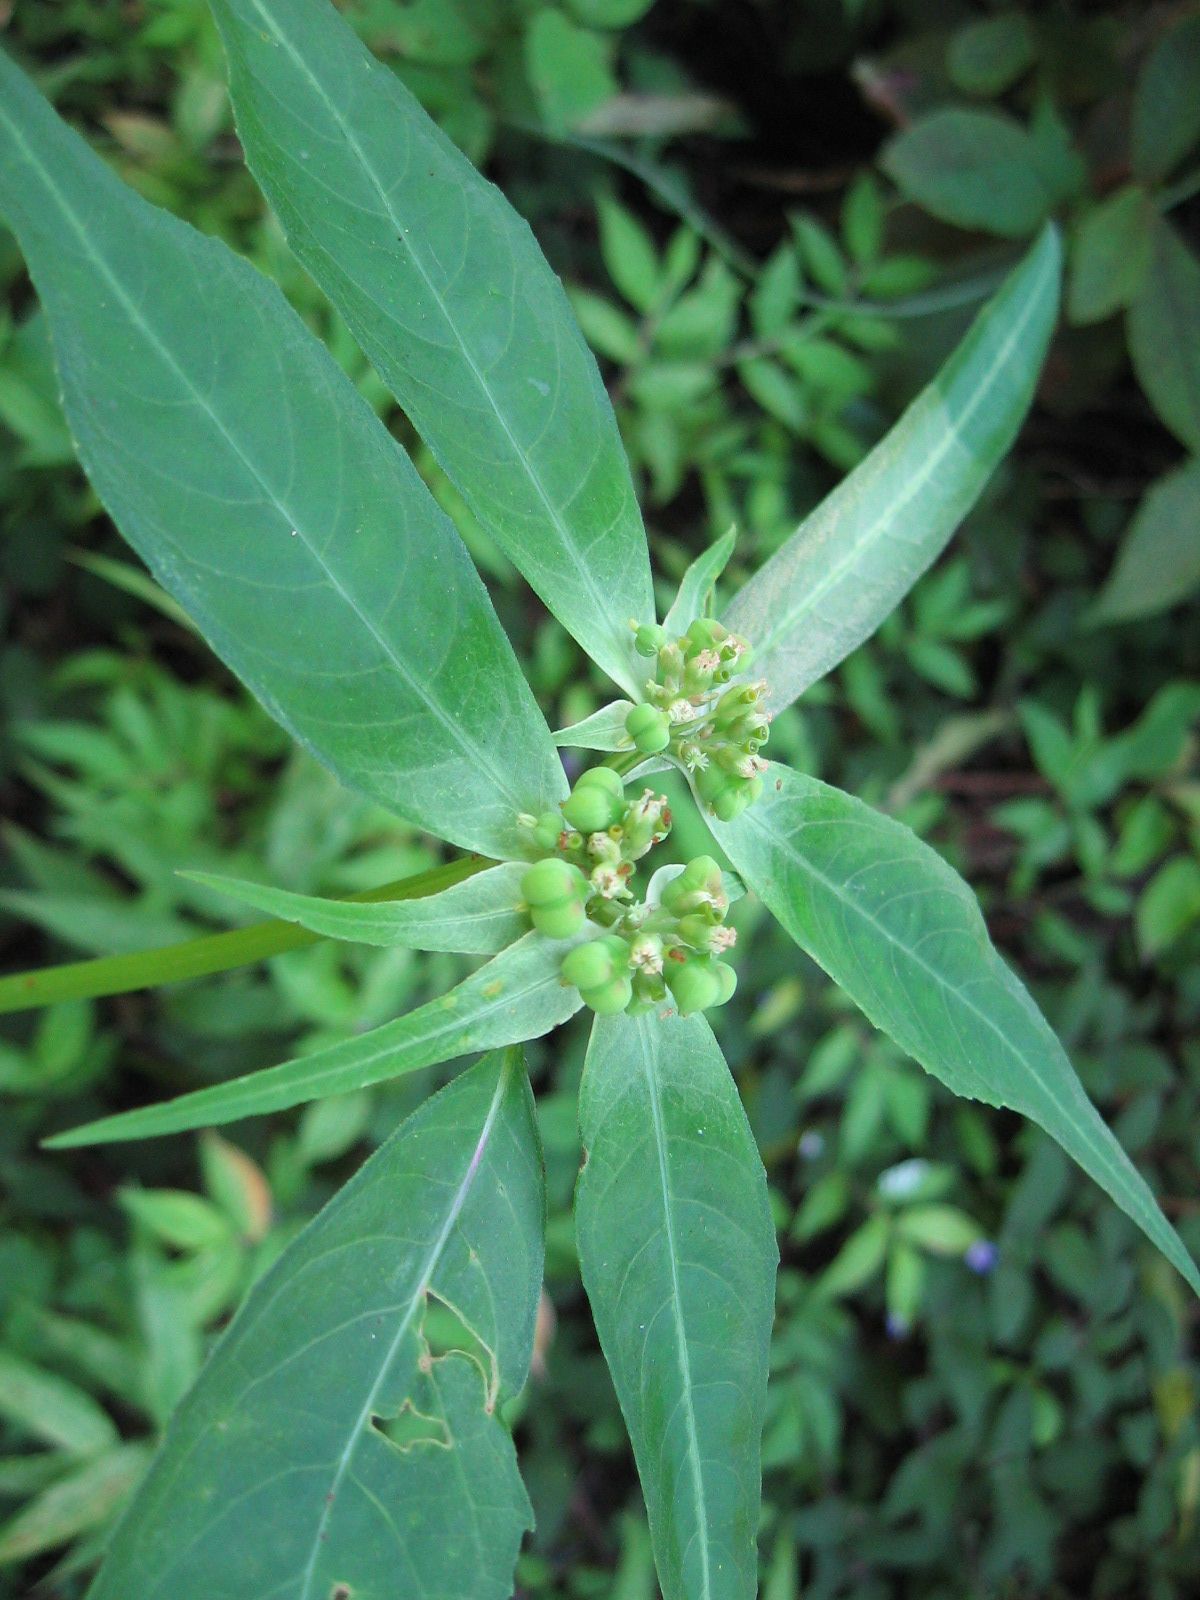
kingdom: Plantae
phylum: Tracheophyta
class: Magnoliopsida
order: Malpighiales
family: Euphorbiaceae
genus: Euphorbia
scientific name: Euphorbia heterophylla
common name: Mexican fireplant
